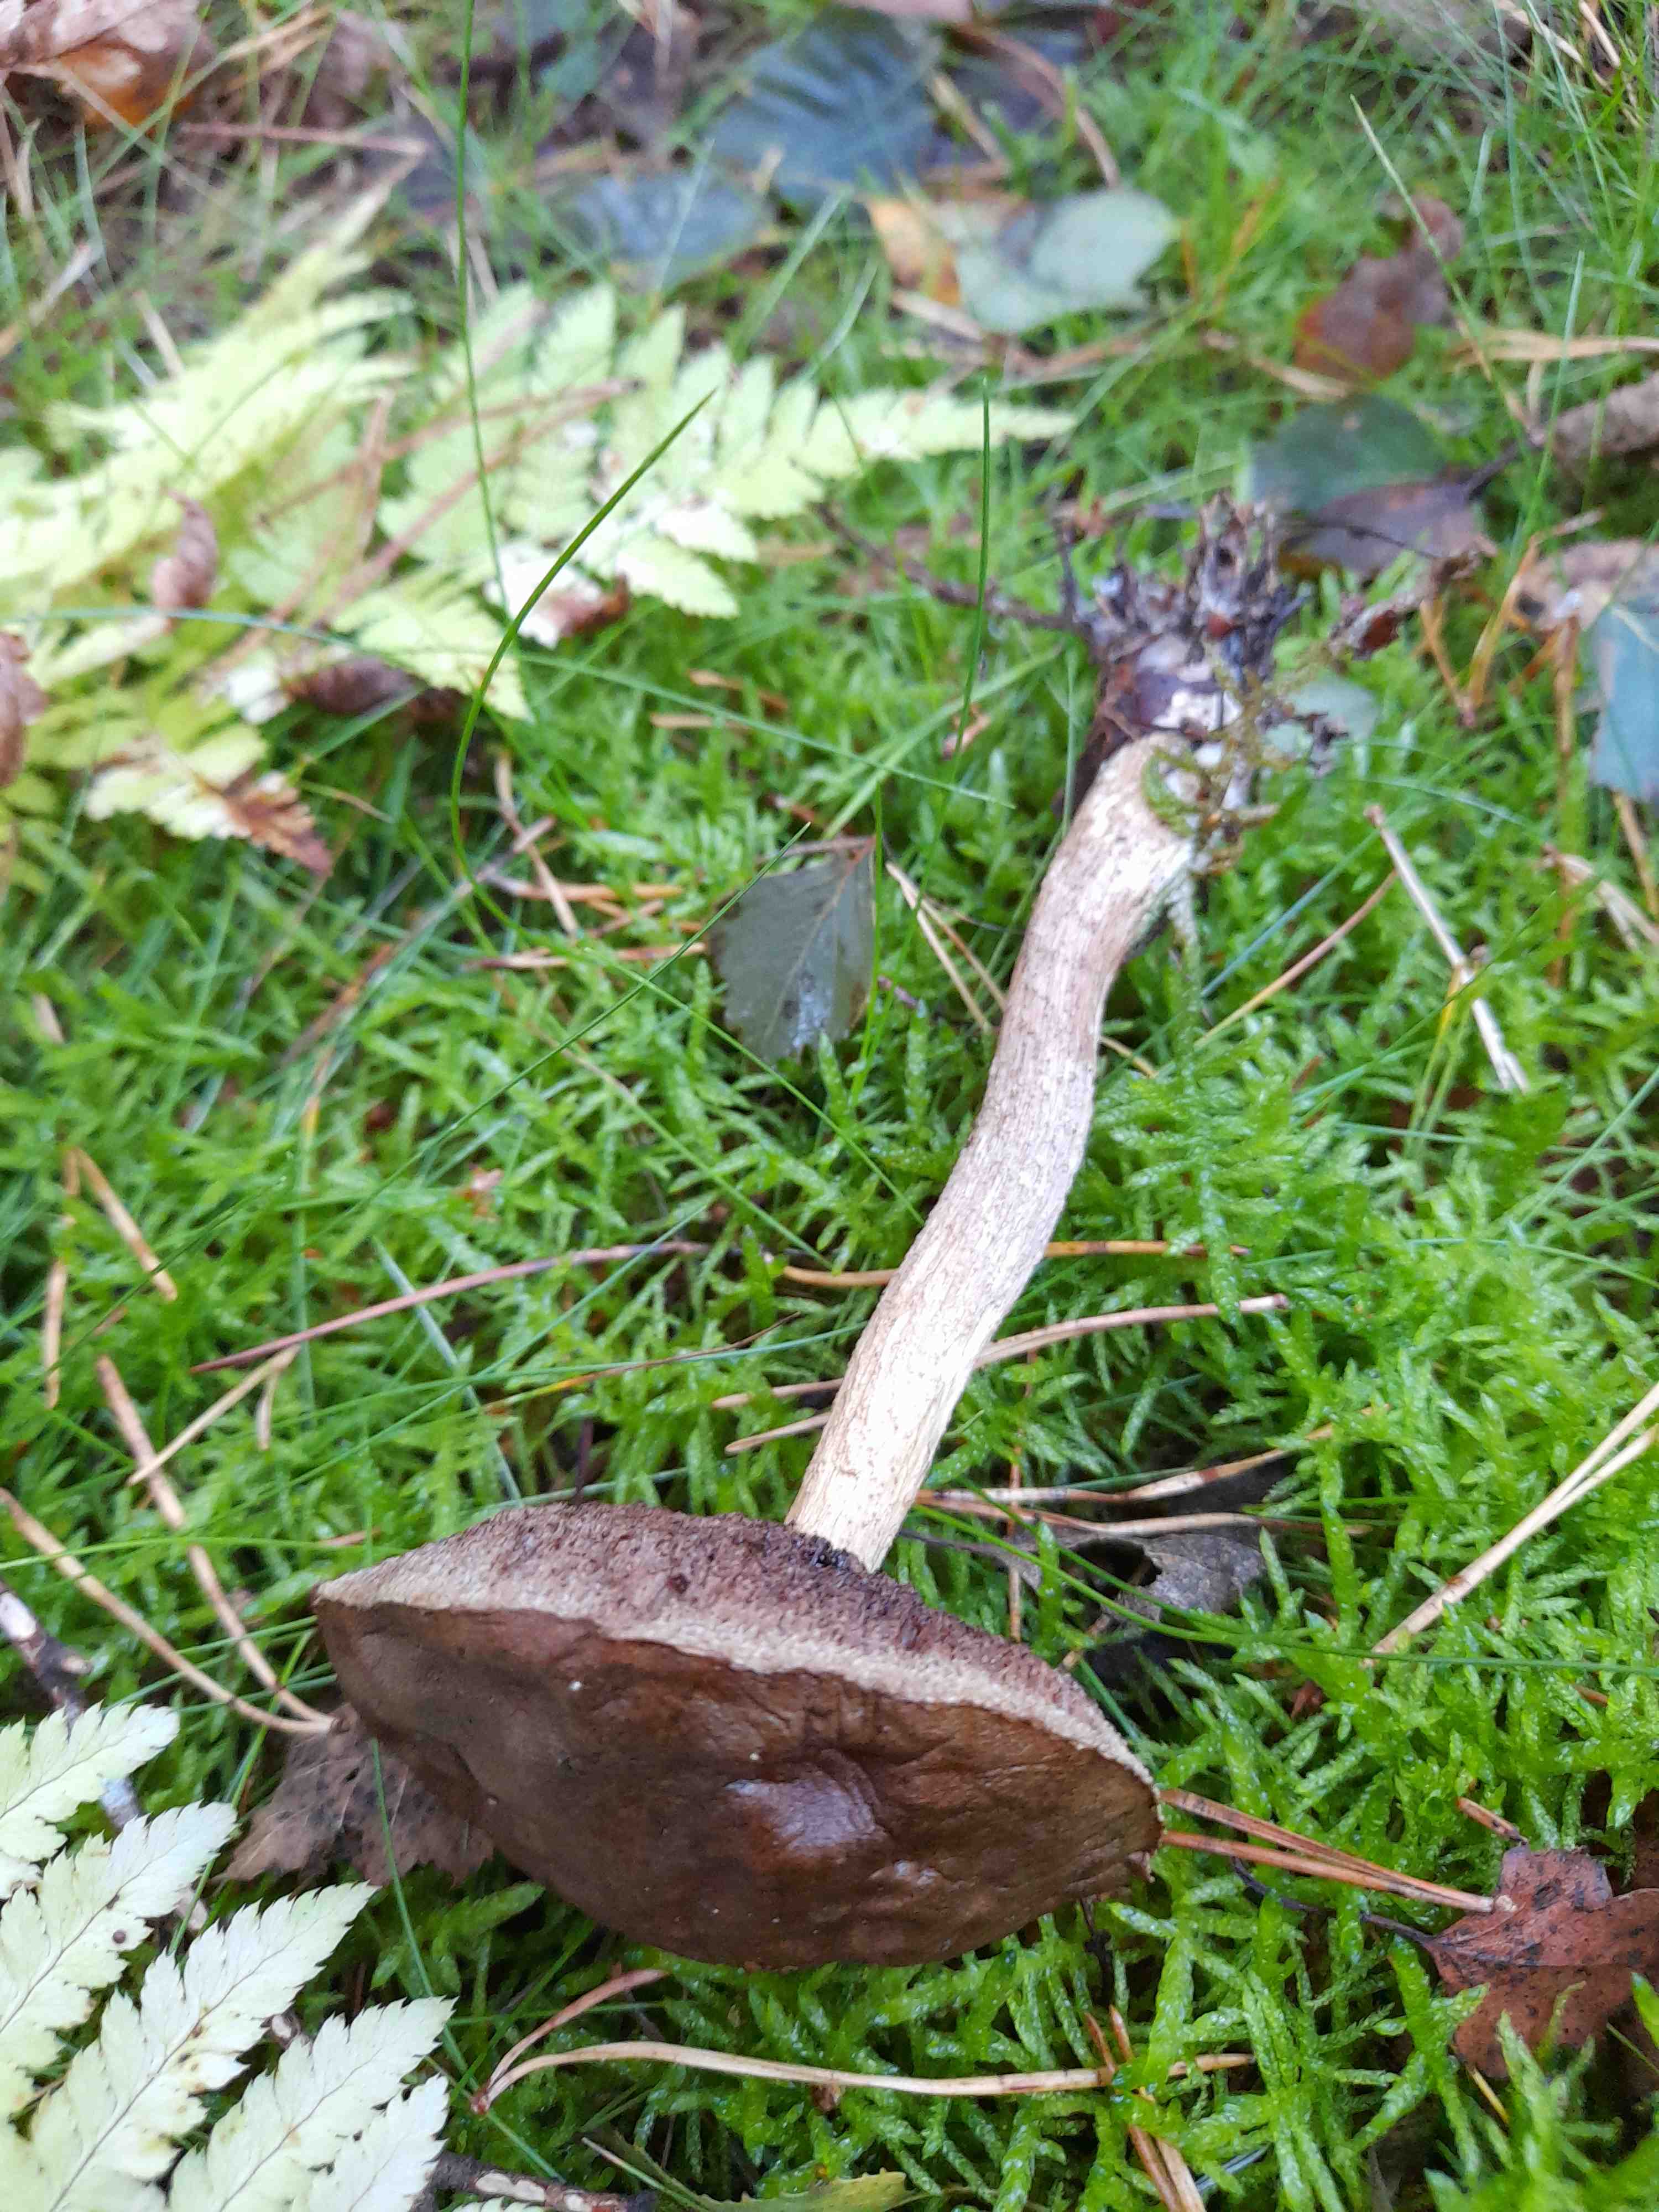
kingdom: Fungi
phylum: Basidiomycota
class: Agaricomycetes
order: Boletales
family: Boletaceae
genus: Leccinum
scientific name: Leccinum
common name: skælrørhat
